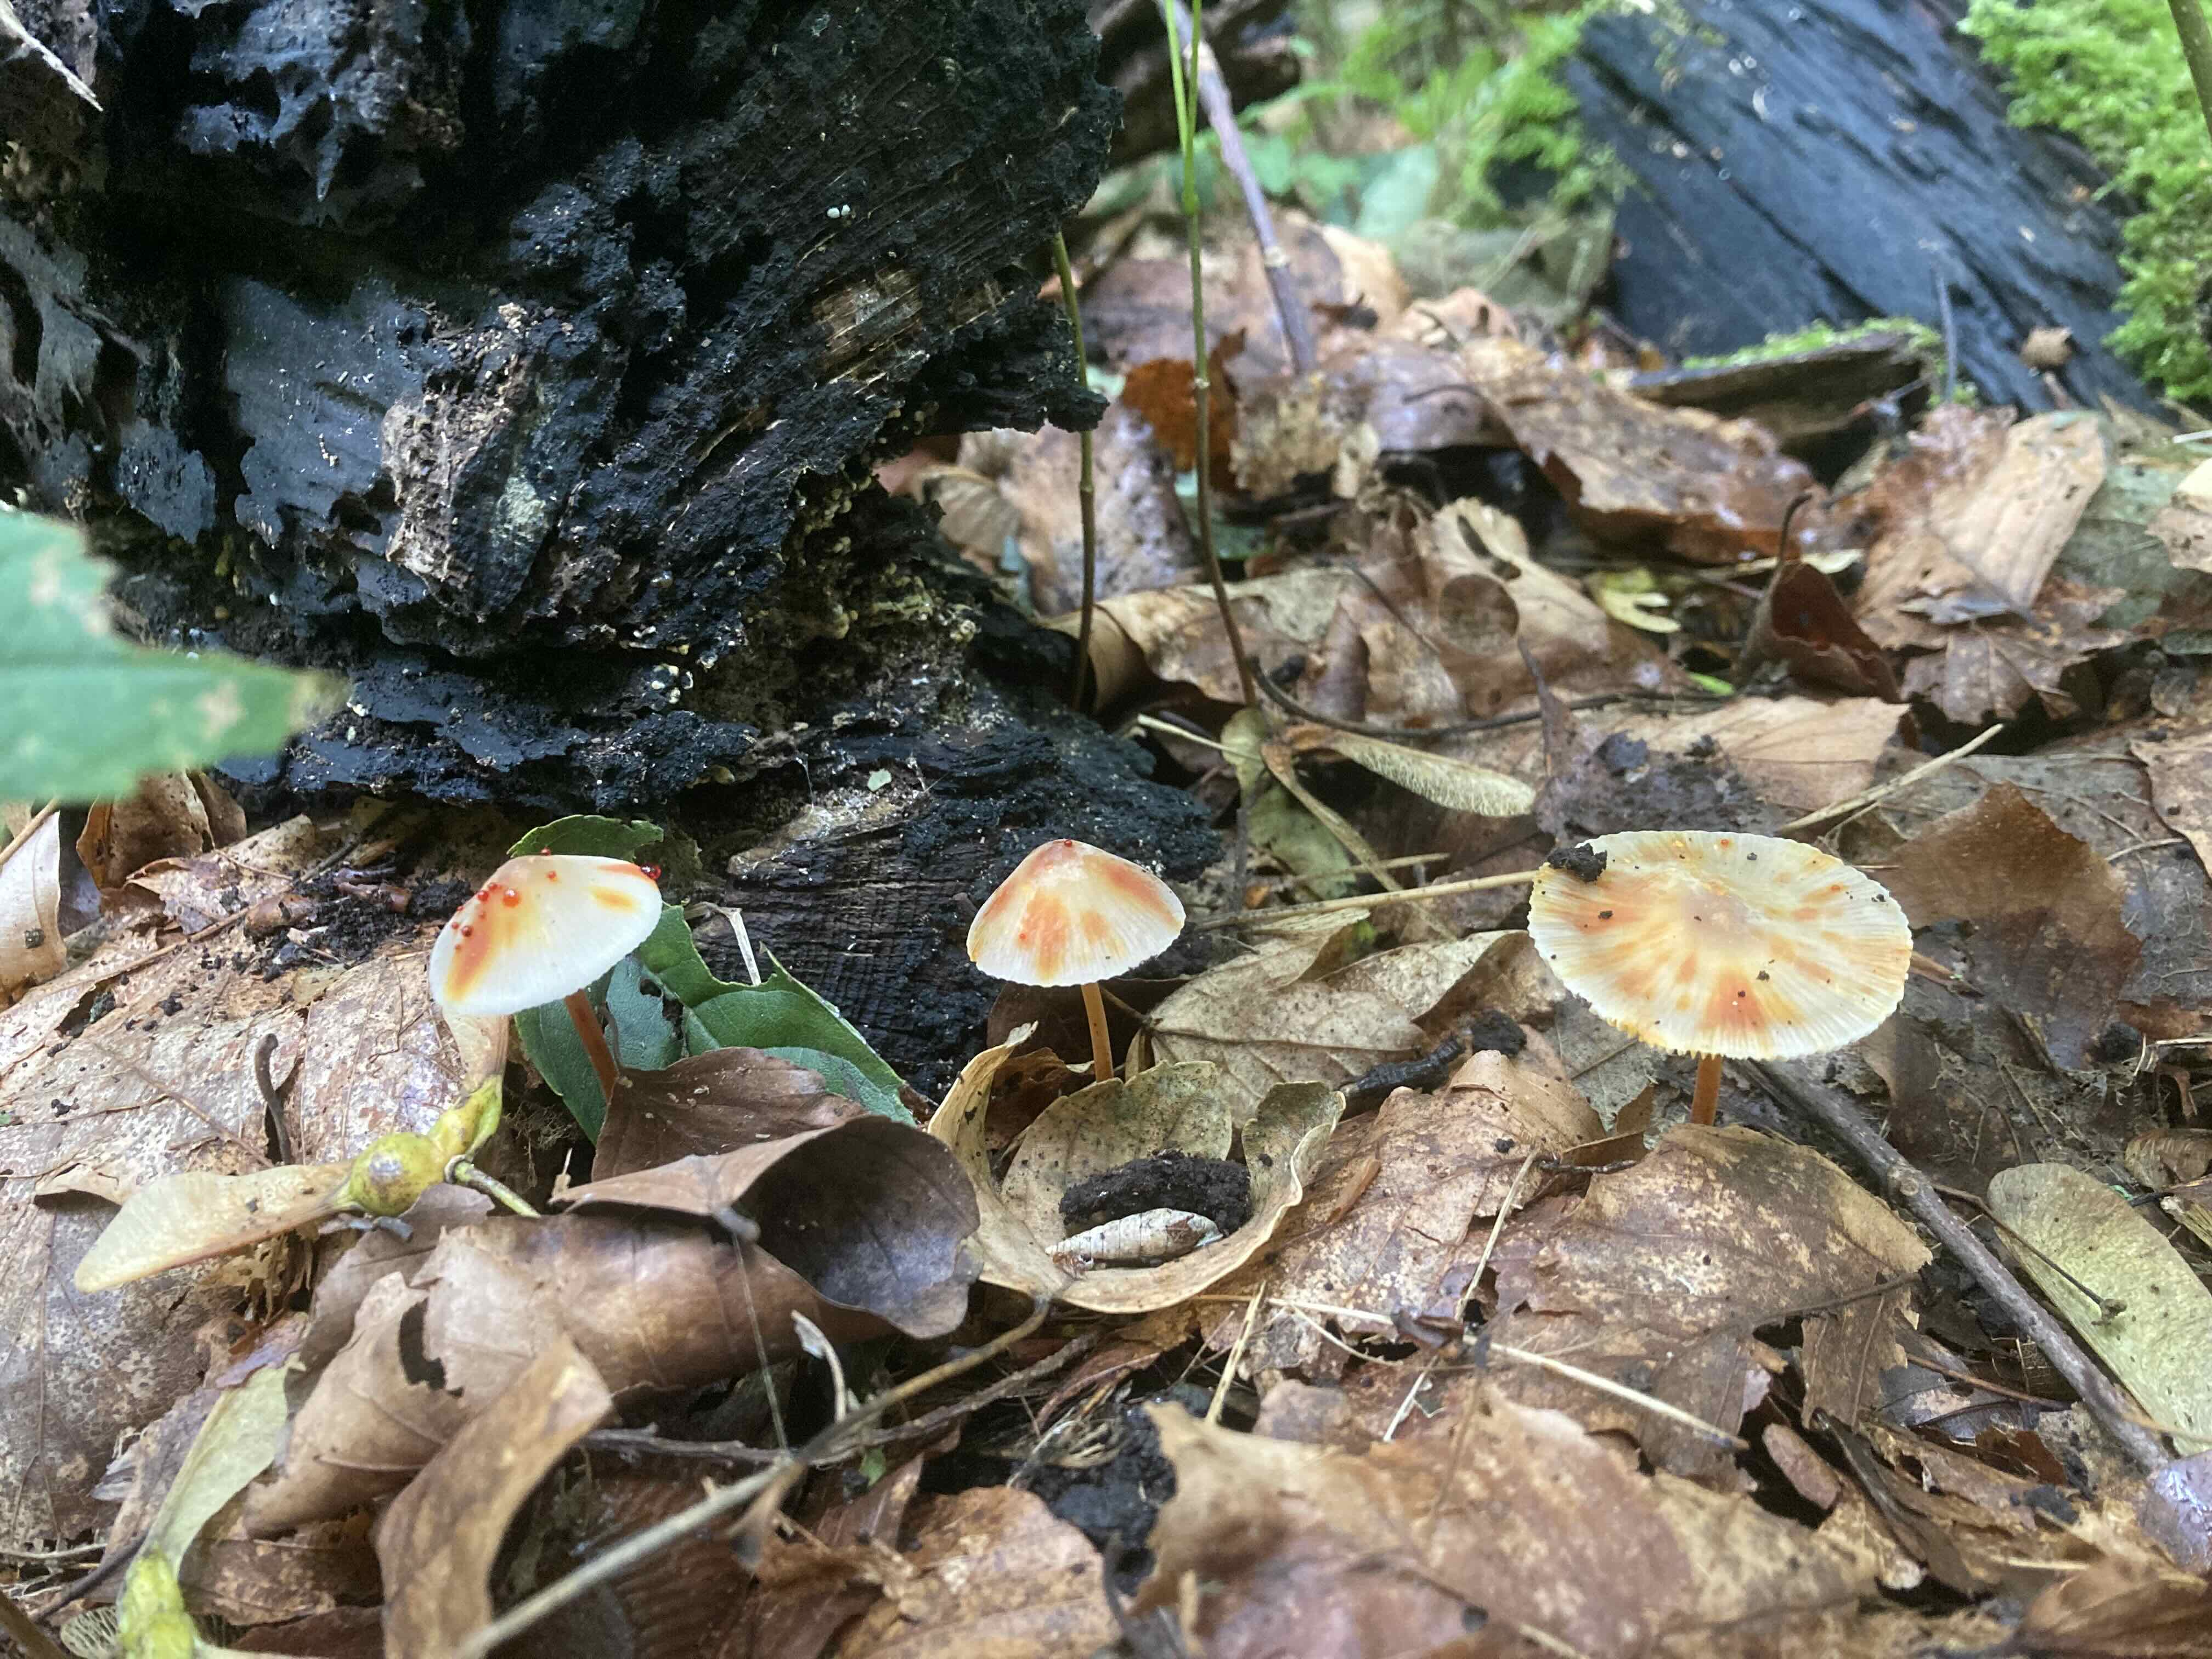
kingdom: Fungi
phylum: Basidiomycota
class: Agaricomycetes
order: Agaricales
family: Mycenaceae
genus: Mycena
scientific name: Mycena crocata
